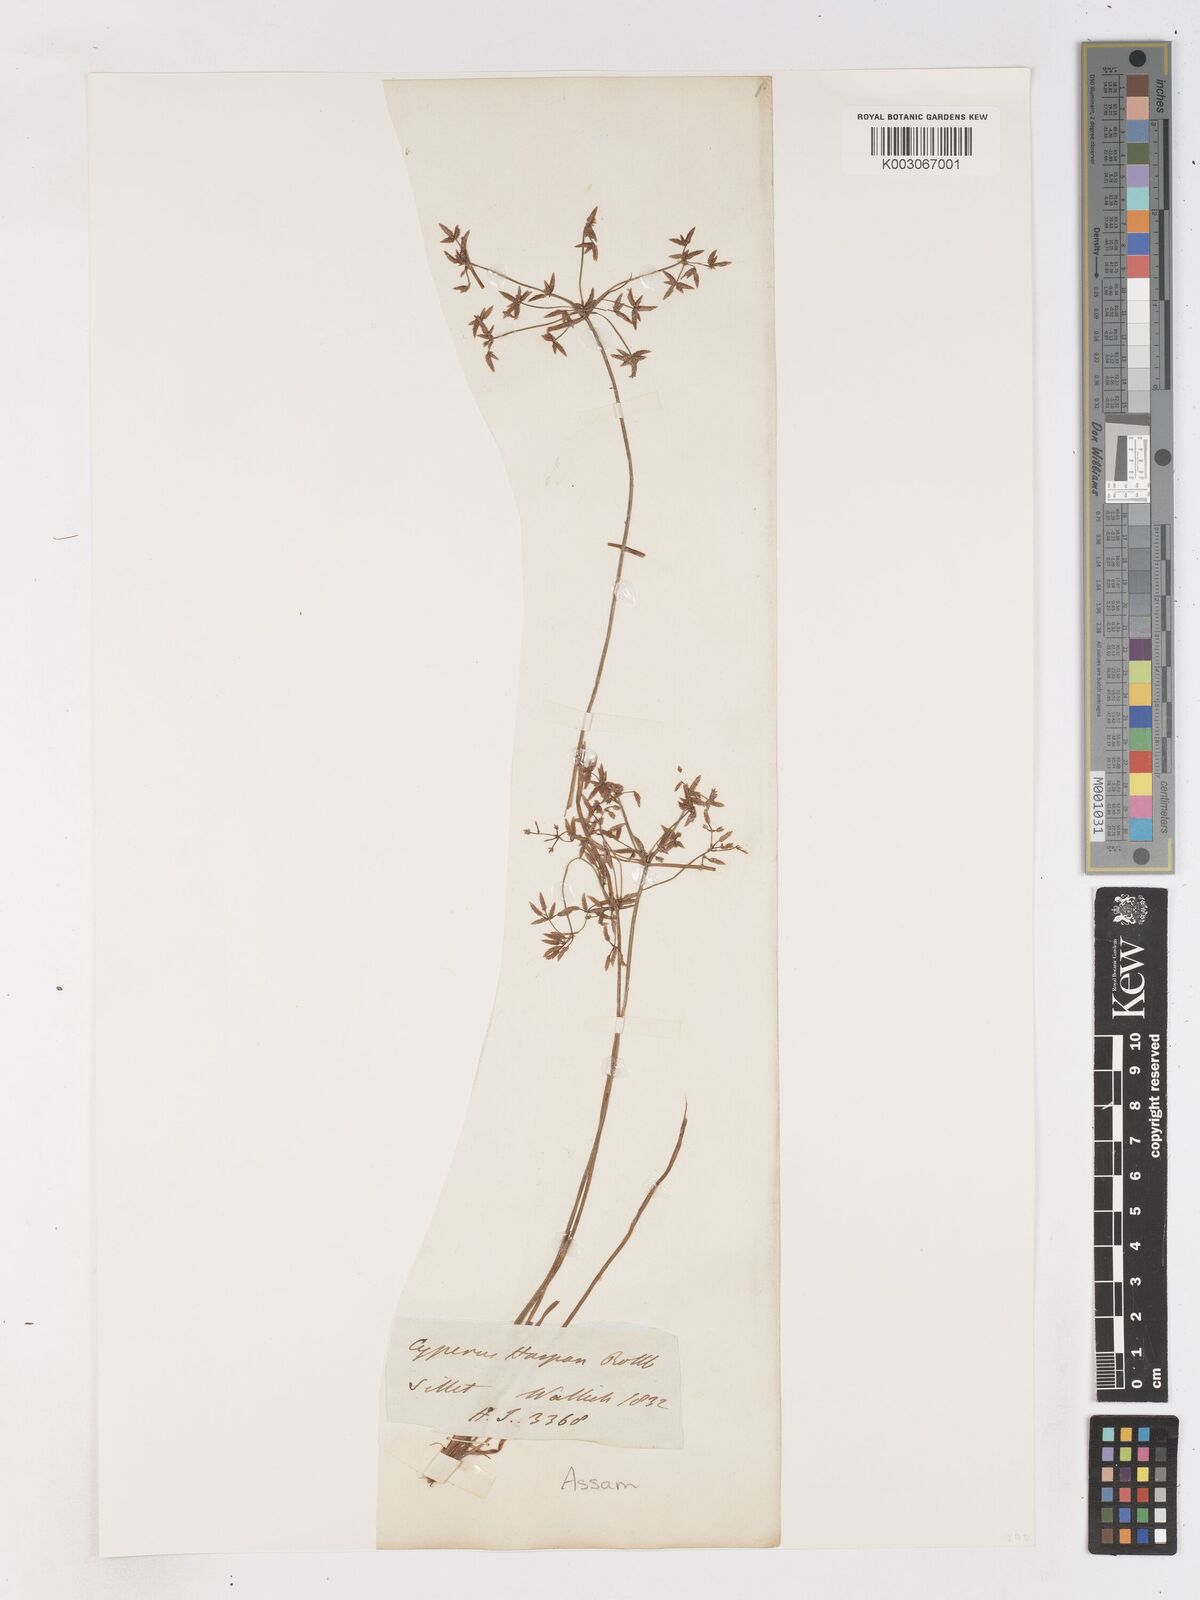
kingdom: Plantae
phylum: Tracheophyta
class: Liliopsida
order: Poales
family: Cyperaceae
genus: Cyperus
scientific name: Cyperus haspan
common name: Haspan flatsedge
